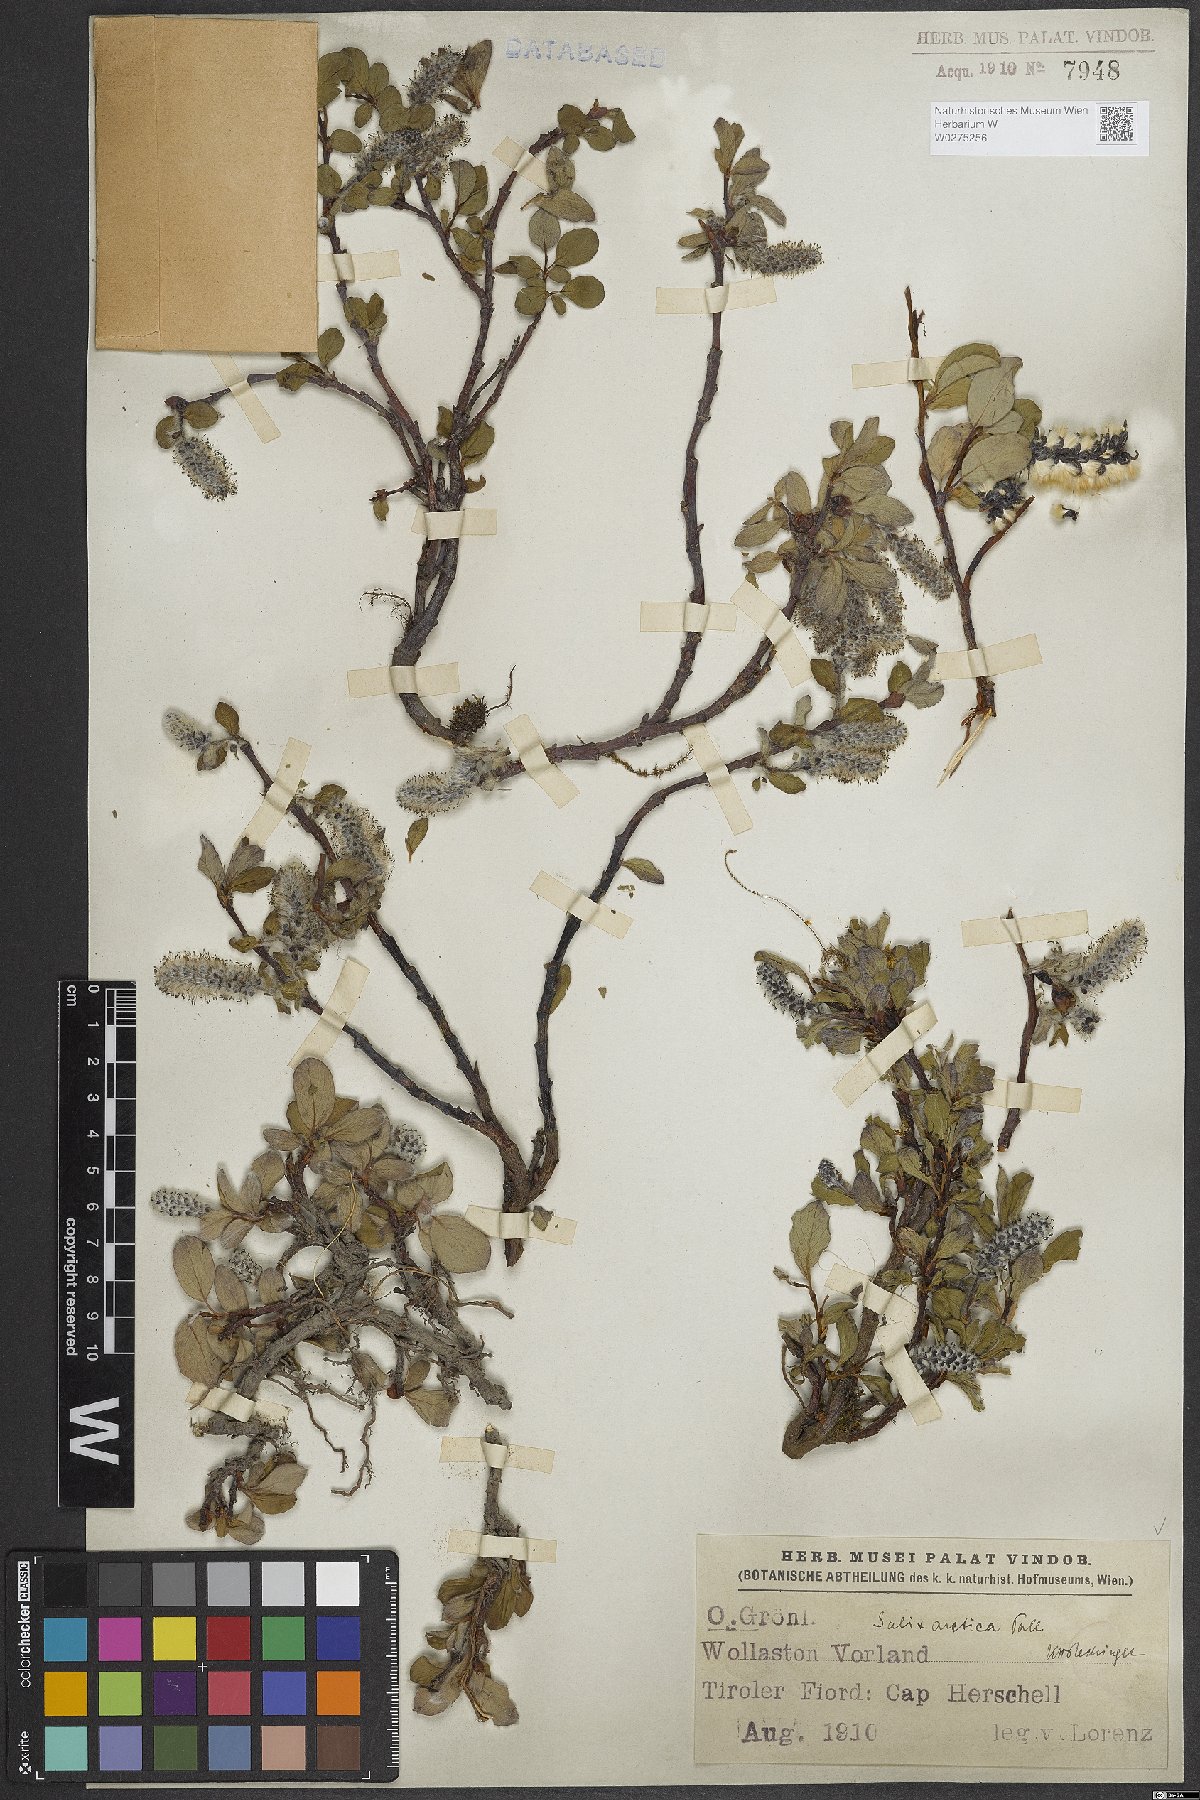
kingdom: Plantae
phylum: Tracheophyta
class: Magnoliopsida
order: Malpighiales
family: Salicaceae
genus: Salix
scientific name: Salix arctica
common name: Arctic willow
